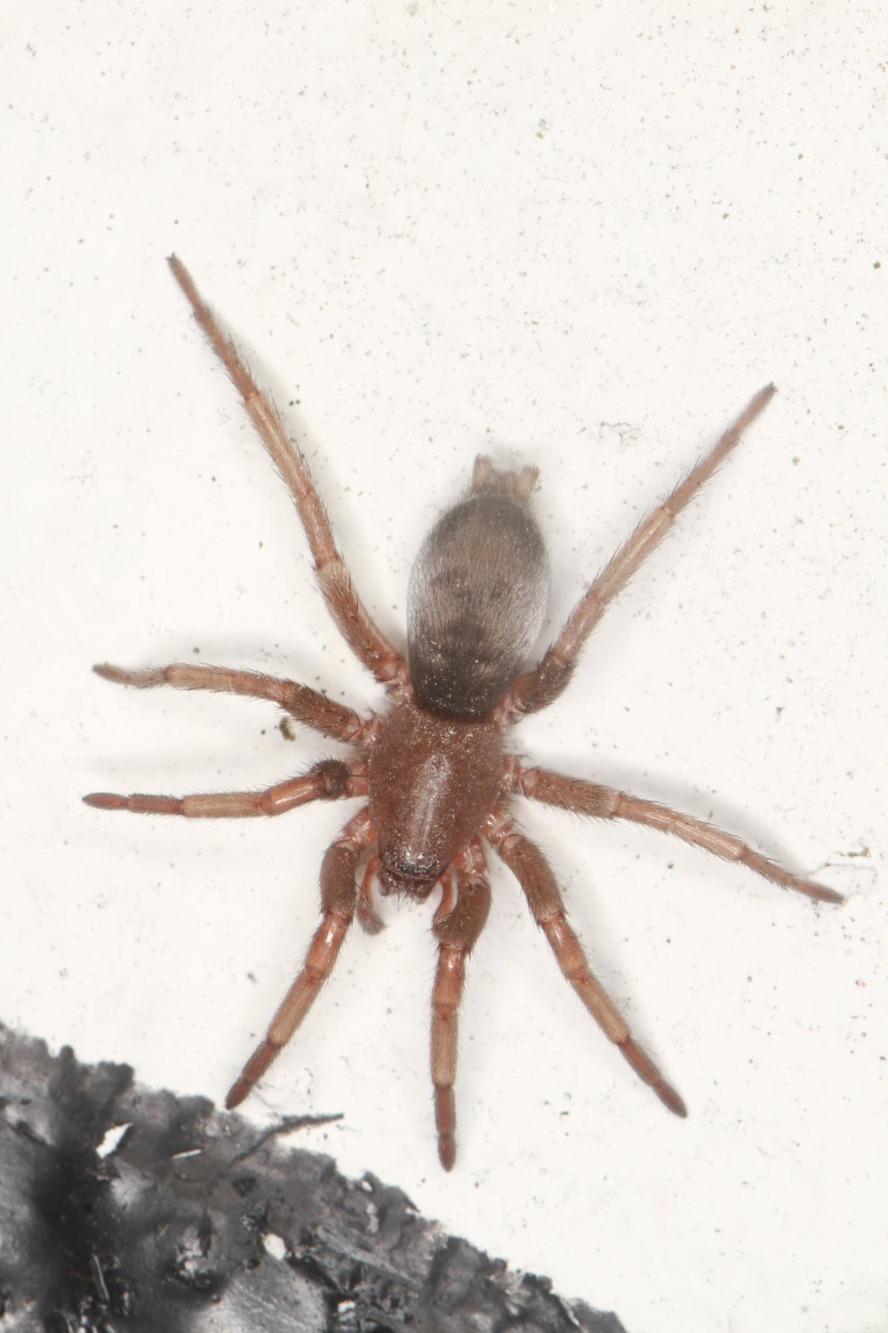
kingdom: Animalia
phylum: Arthropoda
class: Arachnida
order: Araneae
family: Gnaphosidae
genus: Scotophaeus
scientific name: Scotophaeus
